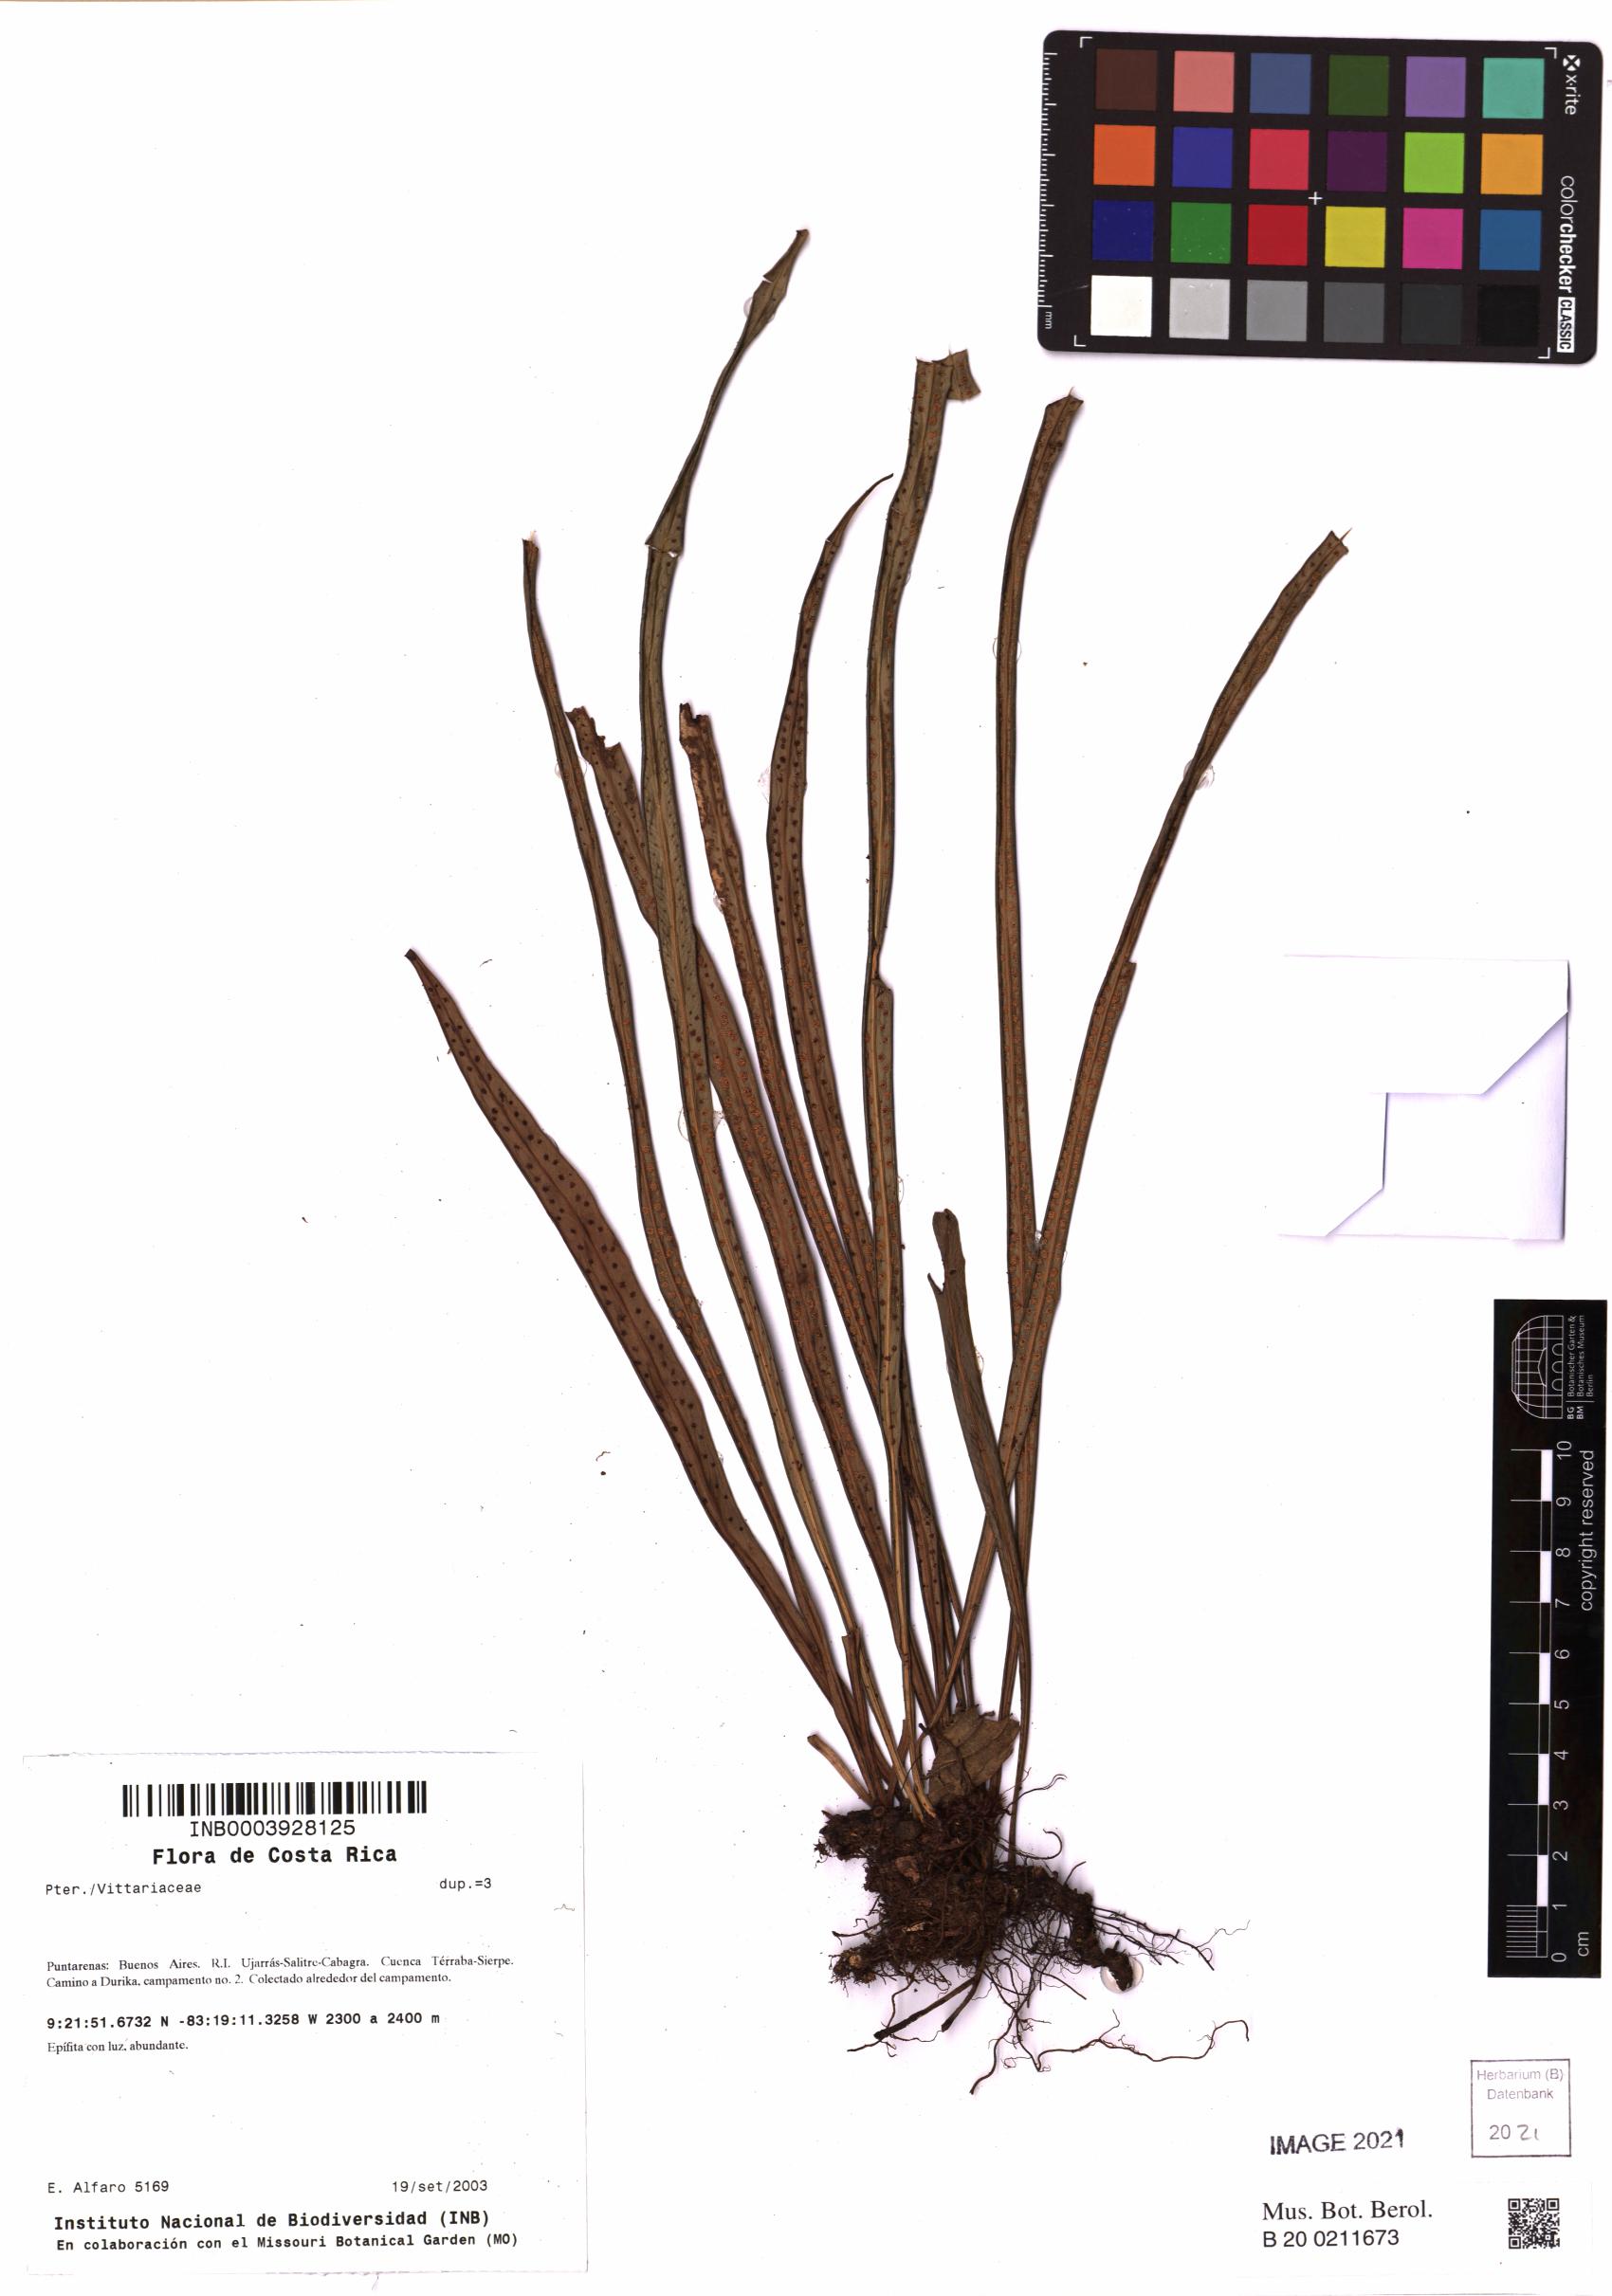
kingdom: Plantae
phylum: Tracheophyta
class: Polypodiopsida
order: Polypodiales
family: Polypodiaceae
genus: Campyloneurum
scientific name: Campyloneurum angustipaleatum
